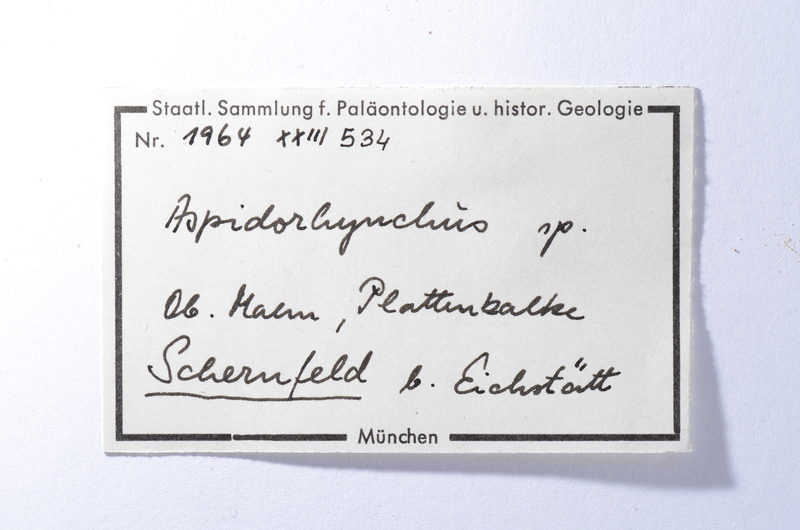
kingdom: Animalia
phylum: Chordata
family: Aspidorhynchidae
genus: Aspidorhynchus
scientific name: Aspidorhynchus
